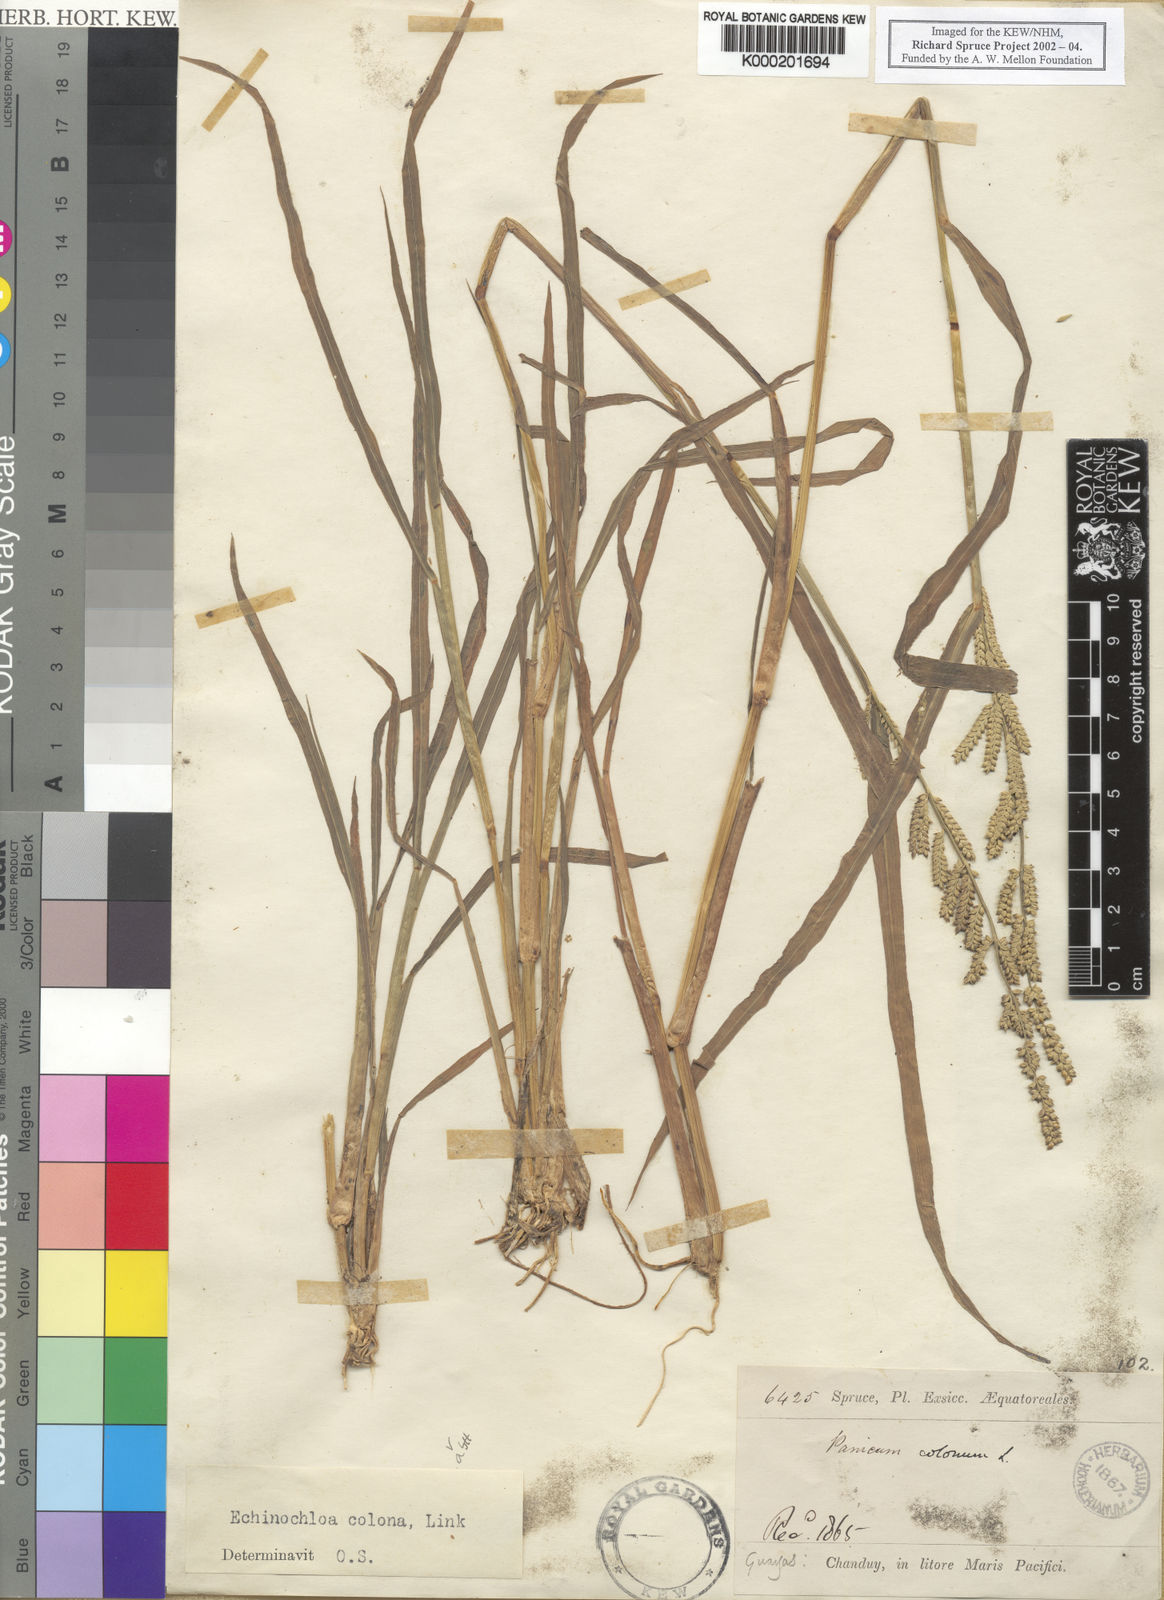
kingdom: Plantae
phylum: Tracheophyta
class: Liliopsida
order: Poales
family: Poaceae
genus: Echinochloa
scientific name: Echinochloa colonum
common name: Jungle rice
